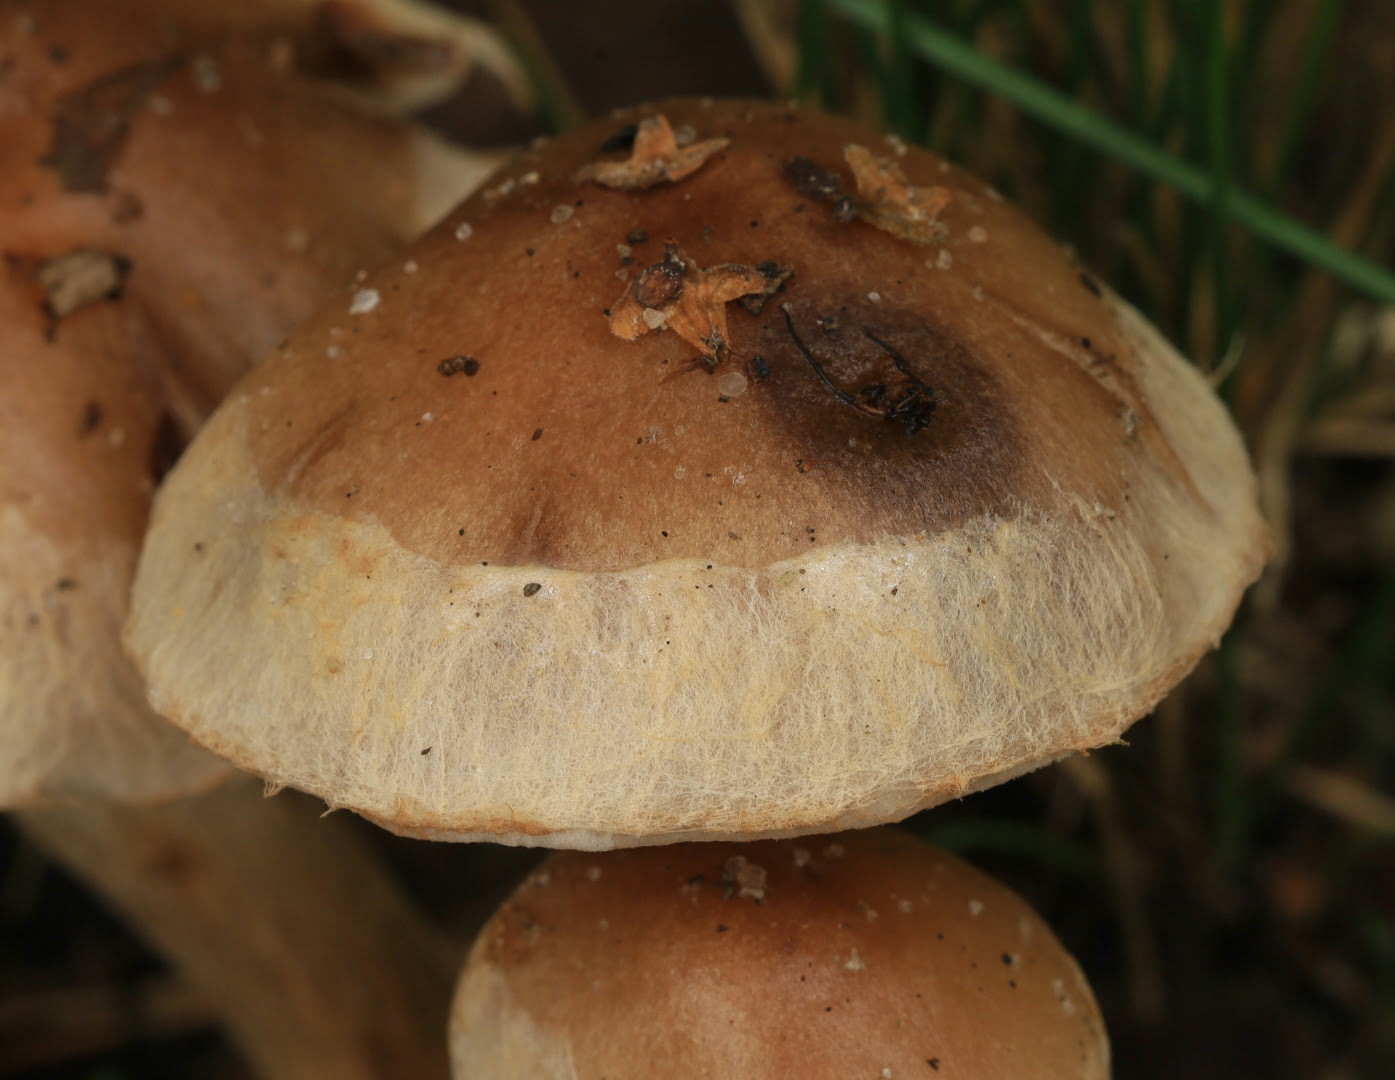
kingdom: Fungi
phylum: Basidiomycota
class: Agaricomycetes
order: Agaricales
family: Hymenogastraceae
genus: Hebeloma
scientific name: Hebeloma mesophaeum
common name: lerbrun tåreblad
